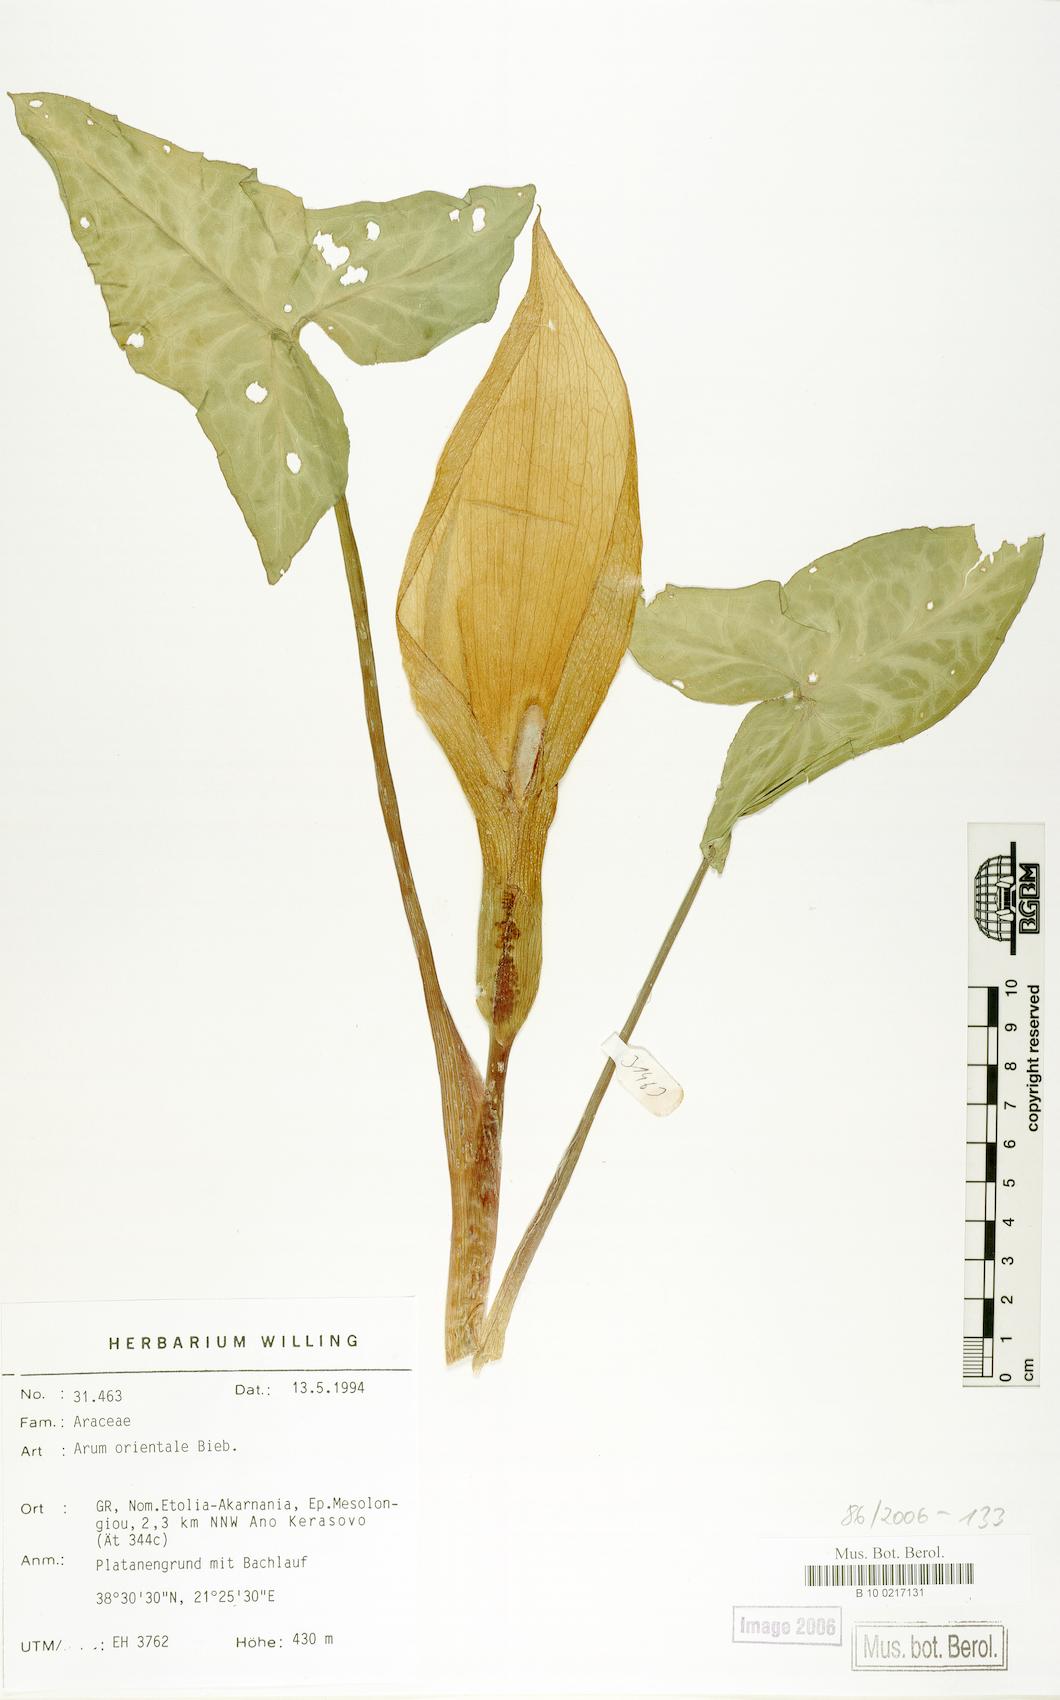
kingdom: Plantae
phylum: Tracheophyta
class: Liliopsida
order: Alismatales
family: Araceae
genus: Arum
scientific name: Arum orientale
